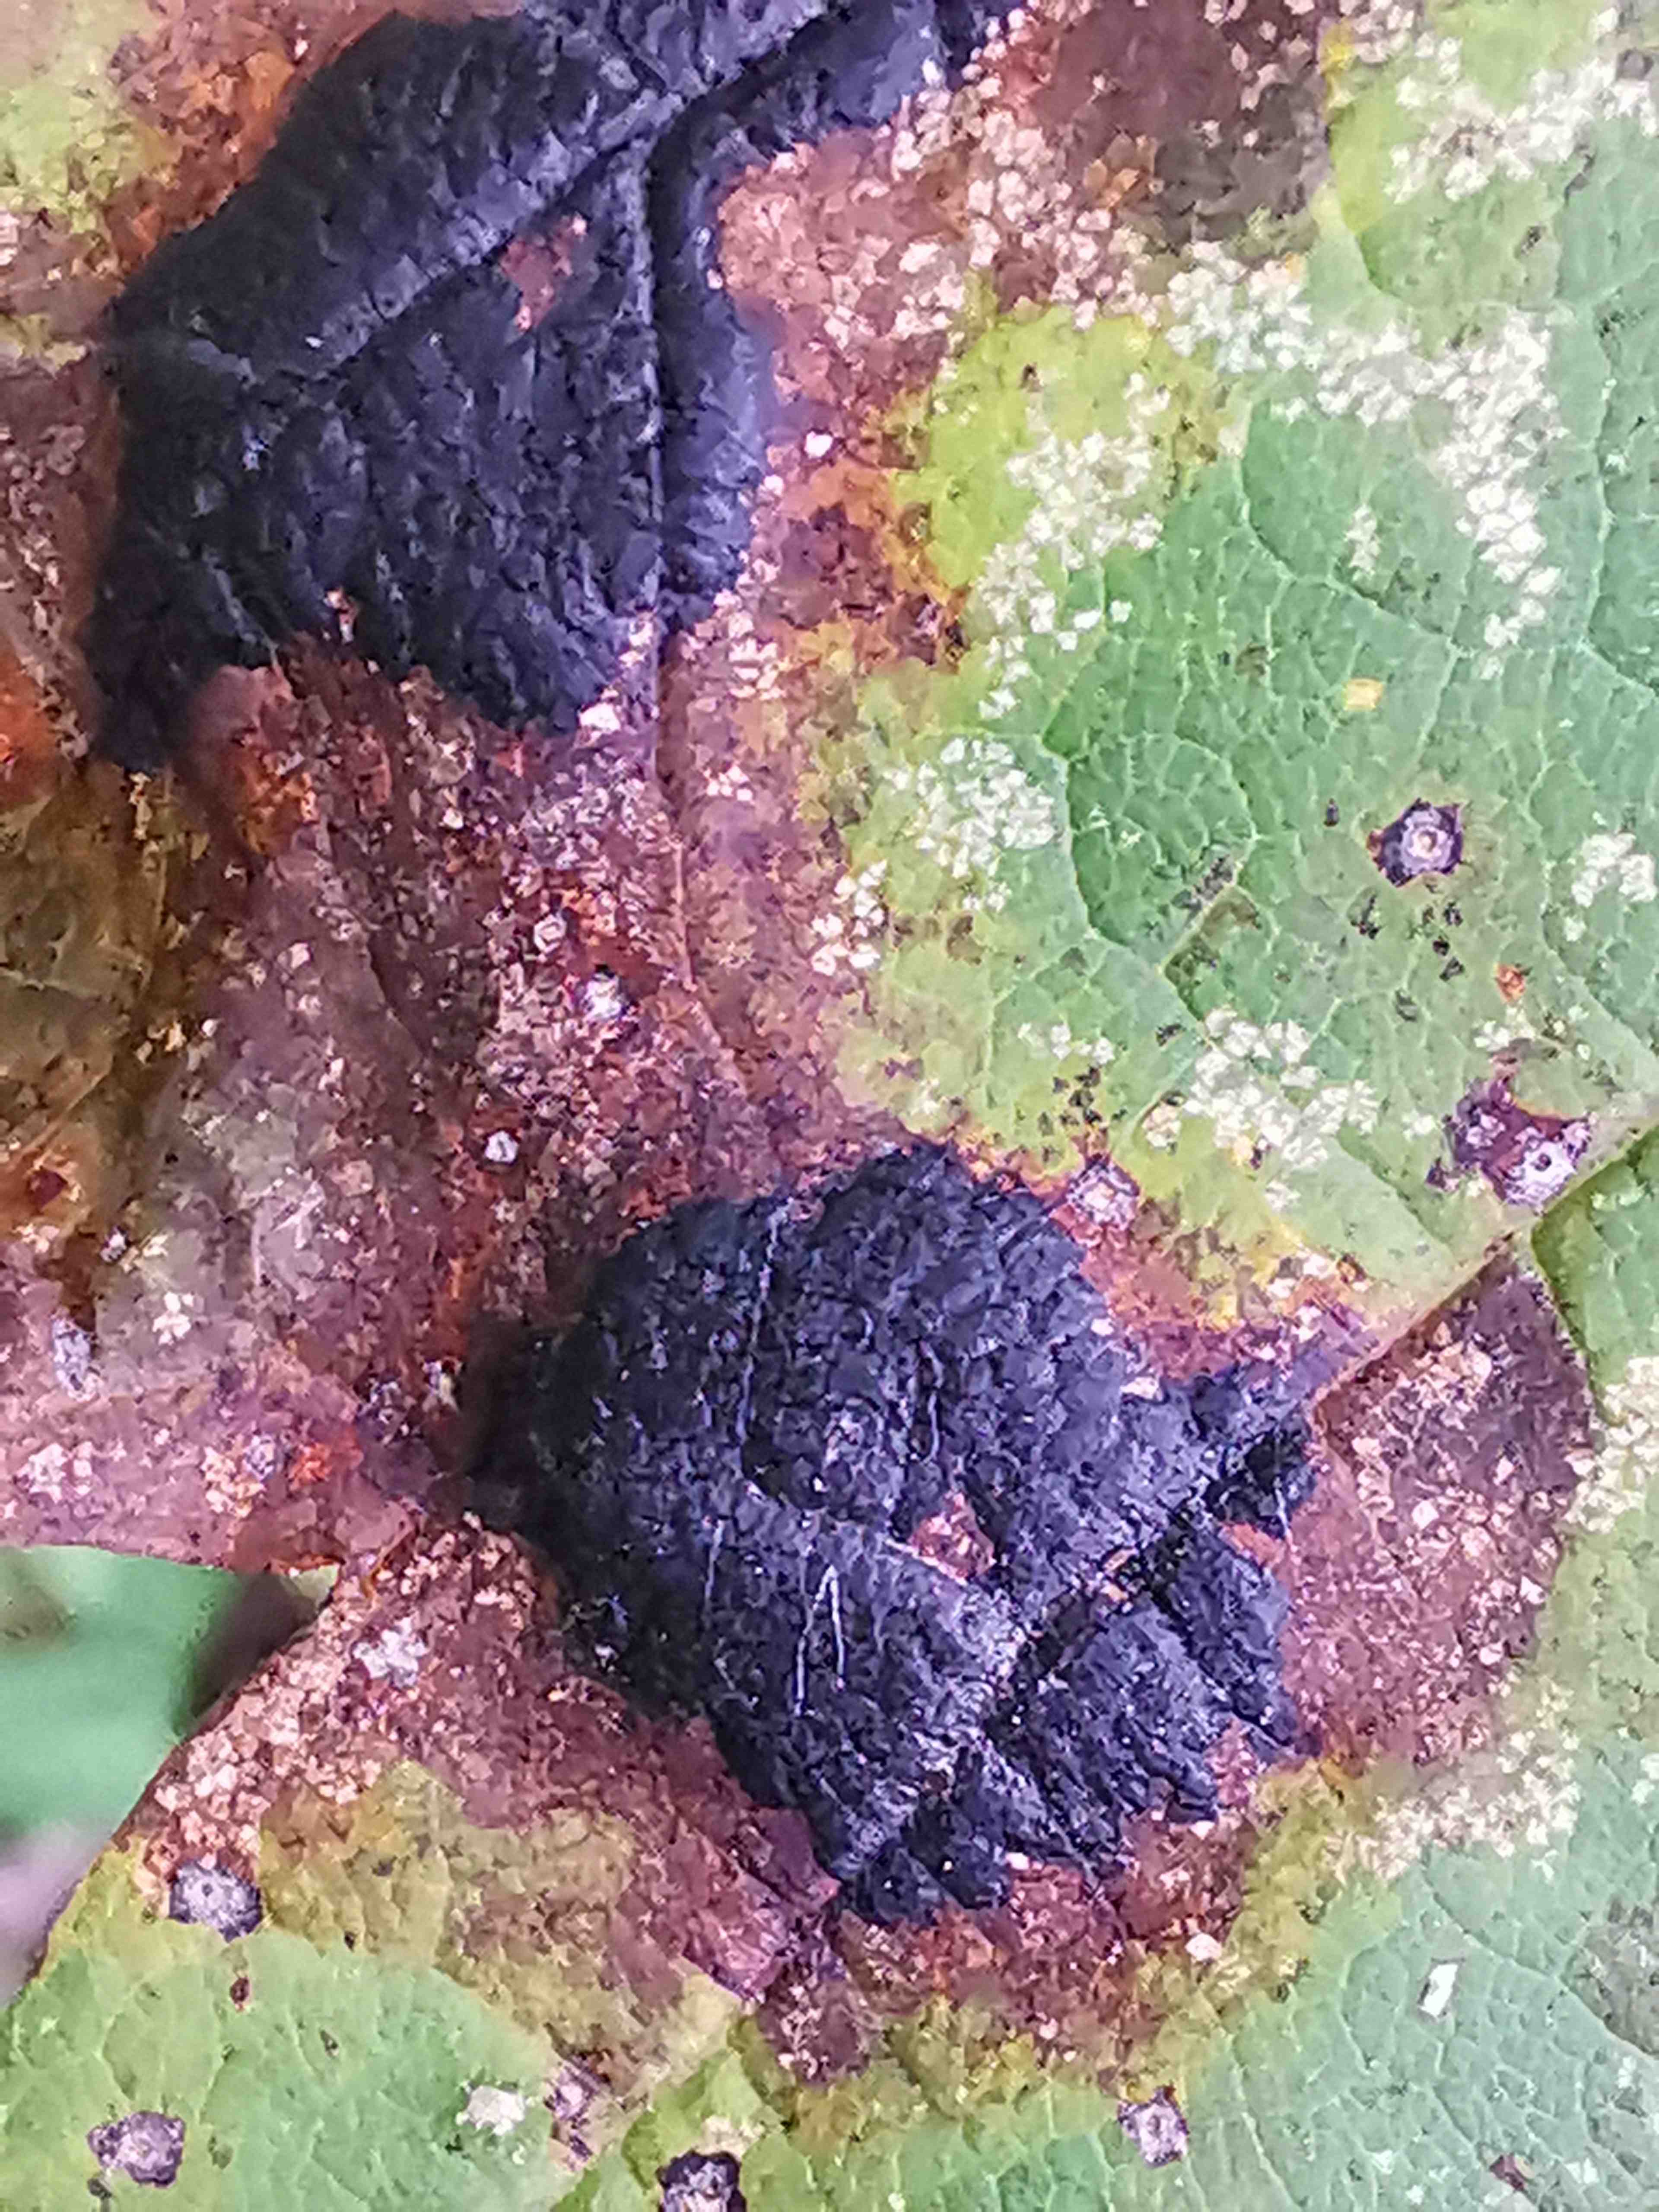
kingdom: Fungi
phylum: Ascomycota
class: Leotiomycetes
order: Rhytismatales
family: Rhytismataceae
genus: Rhytisma
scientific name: Rhytisma acerinum
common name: ahorn-rynkeplet
